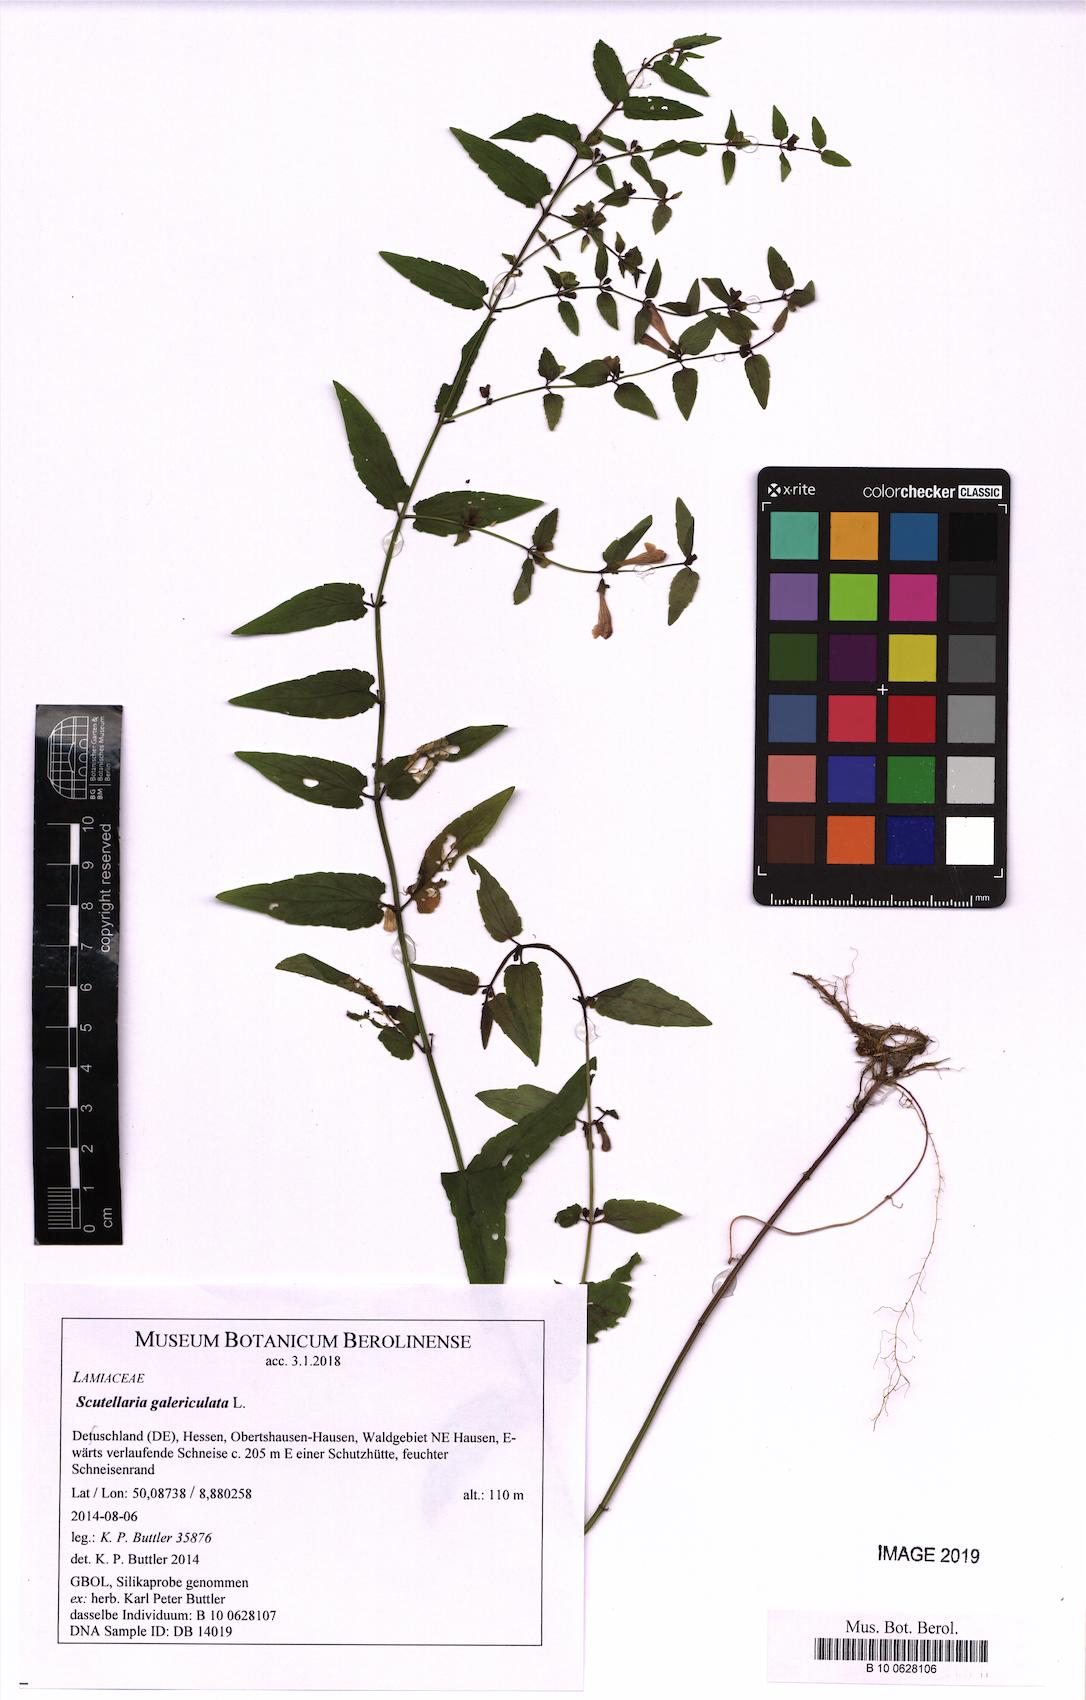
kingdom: Plantae
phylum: Tracheophyta
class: Magnoliopsida
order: Lamiales
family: Lamiaceae
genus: Scutellaria
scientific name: Scutellaria galericulata
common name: Skullcap
